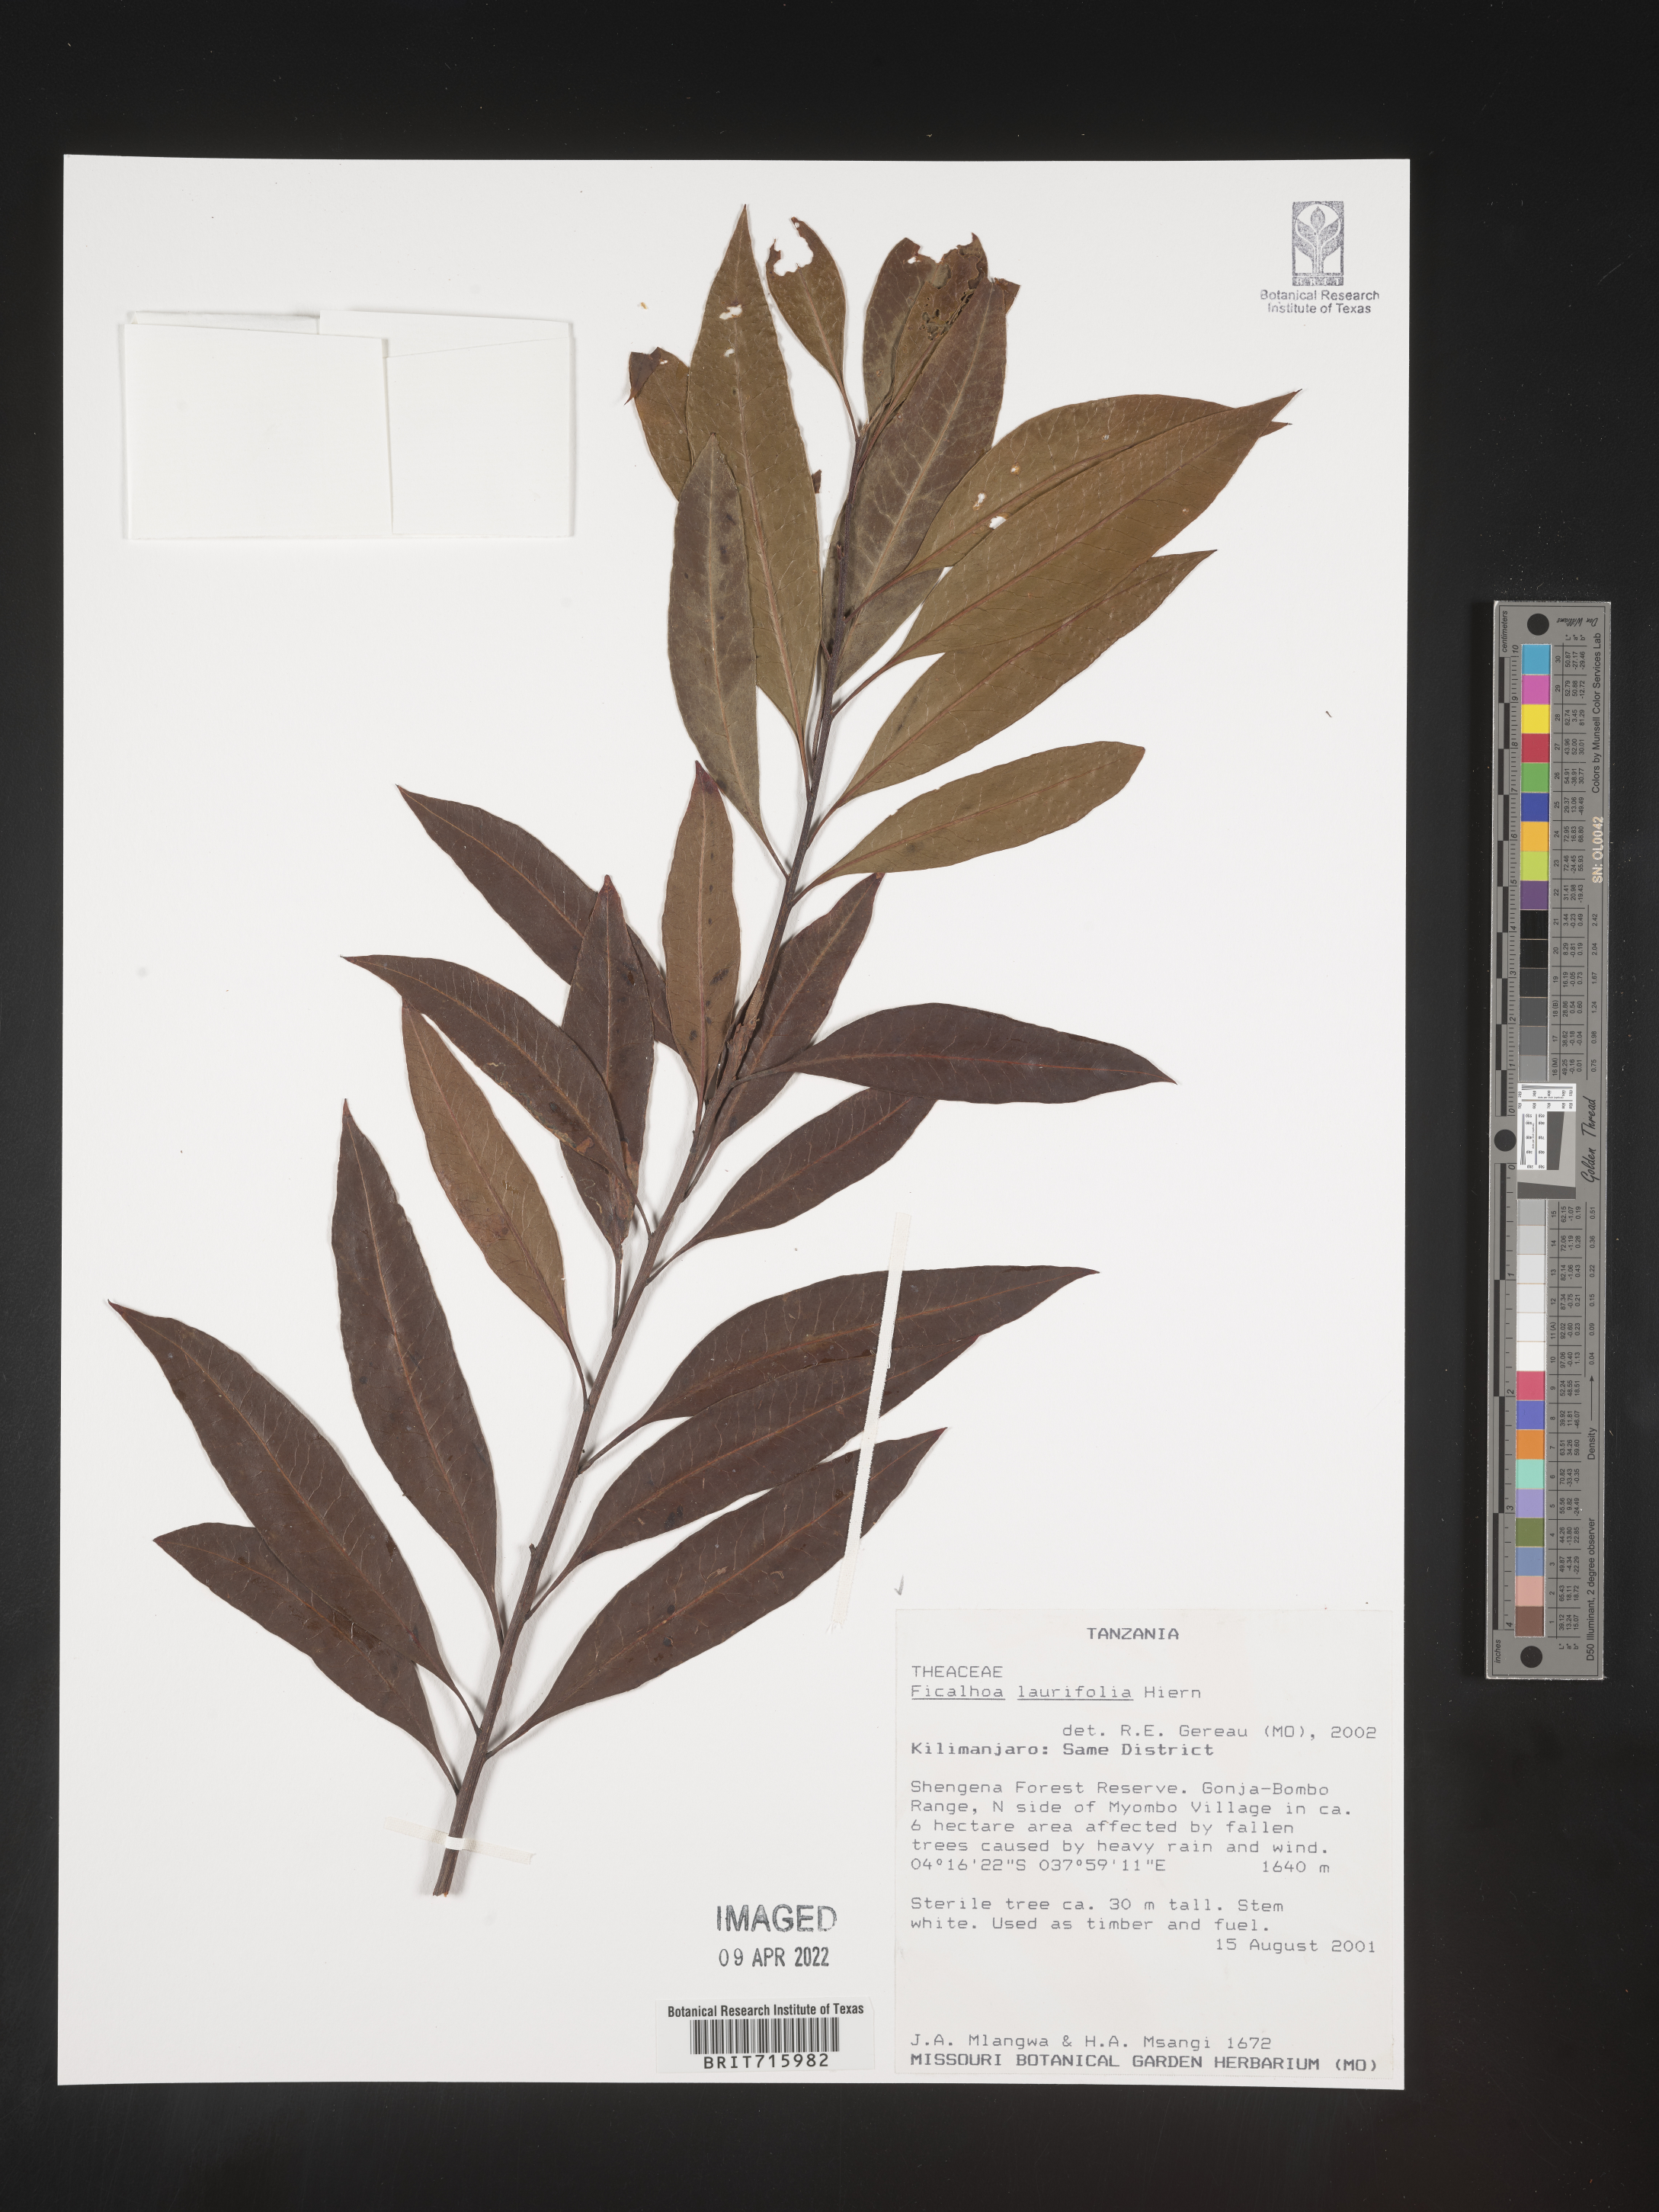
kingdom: Plantae
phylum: Tracheophyta
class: Magnoliopsida
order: Ericales
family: Sladeniaceae
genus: Ficalhoa
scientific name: Ficalhoa
